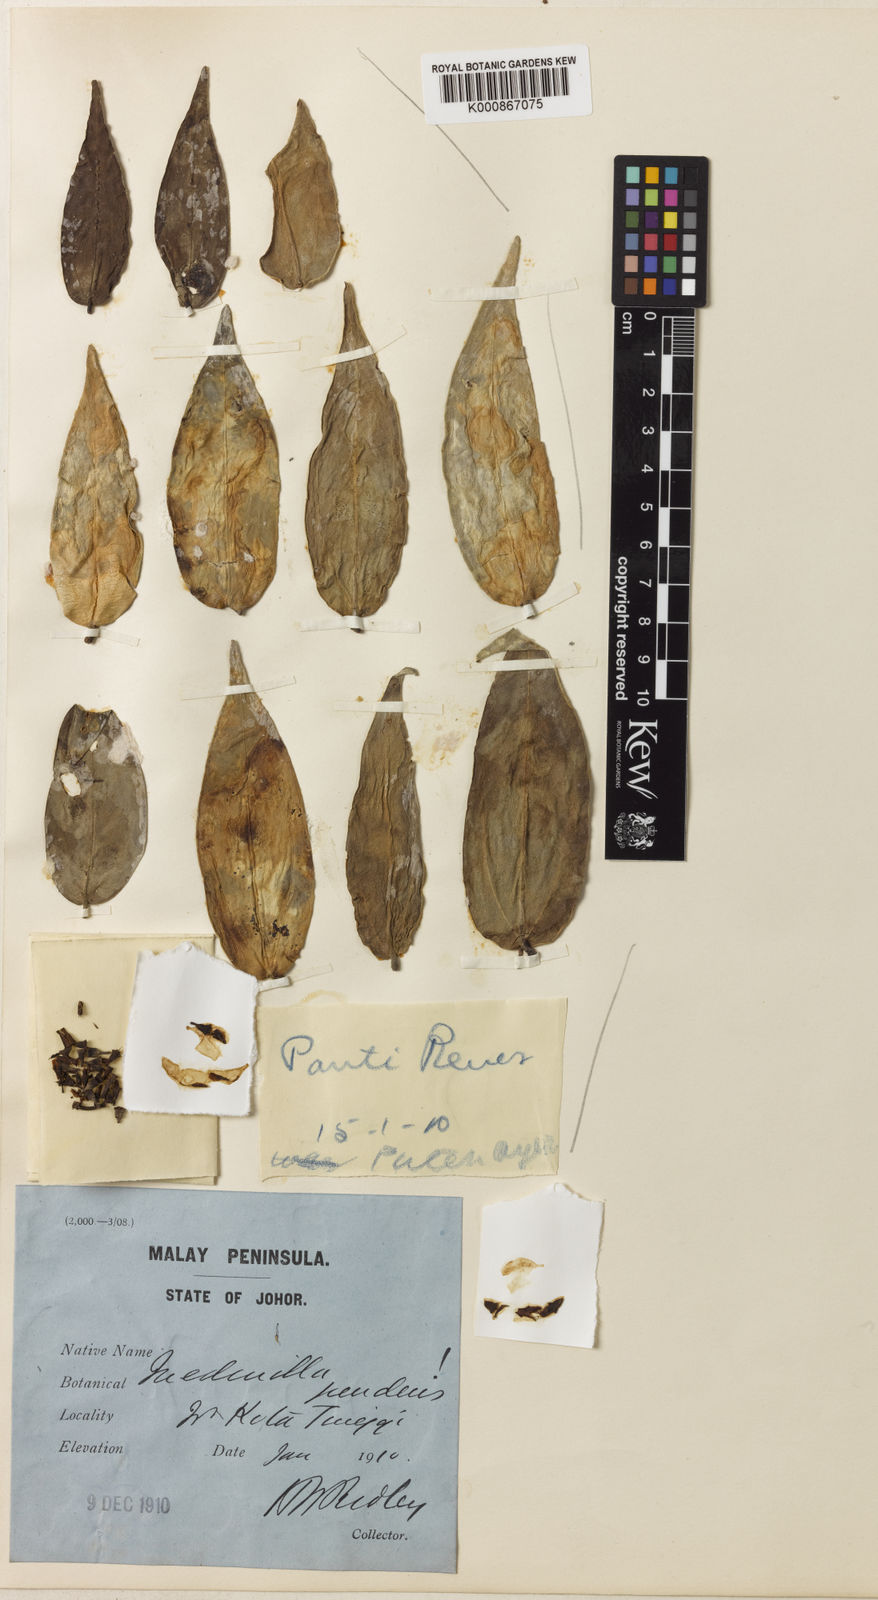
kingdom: Plantae
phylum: Tracheophyta
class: Magnoliopsida
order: Myrtales
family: Melastomataceae
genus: Medinilla
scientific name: Medinilla pendens
